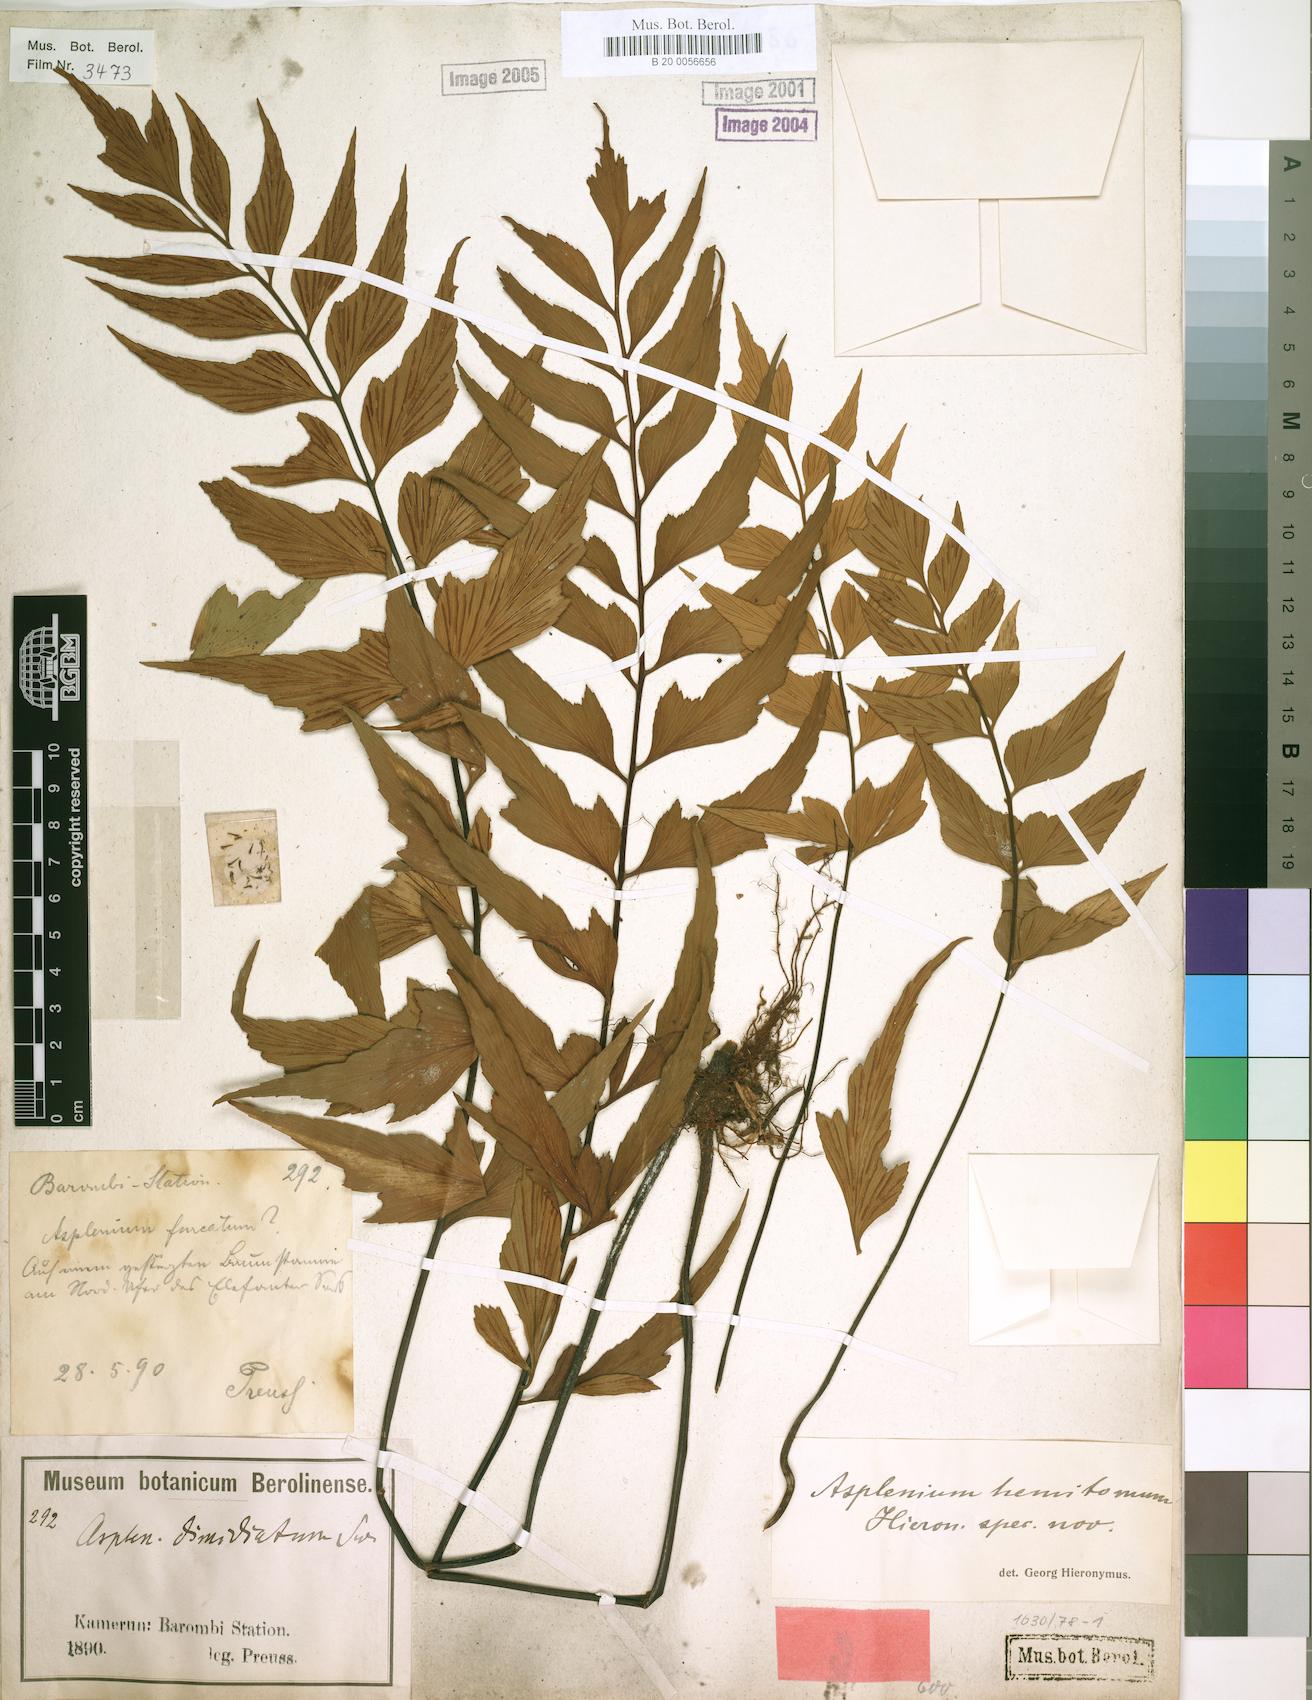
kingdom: Plantae
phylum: Tracheophyta
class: Polypodiopsida
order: Polypodiales
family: Aspleniaceae
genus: Asplenium
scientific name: Asplenium hemitomum
